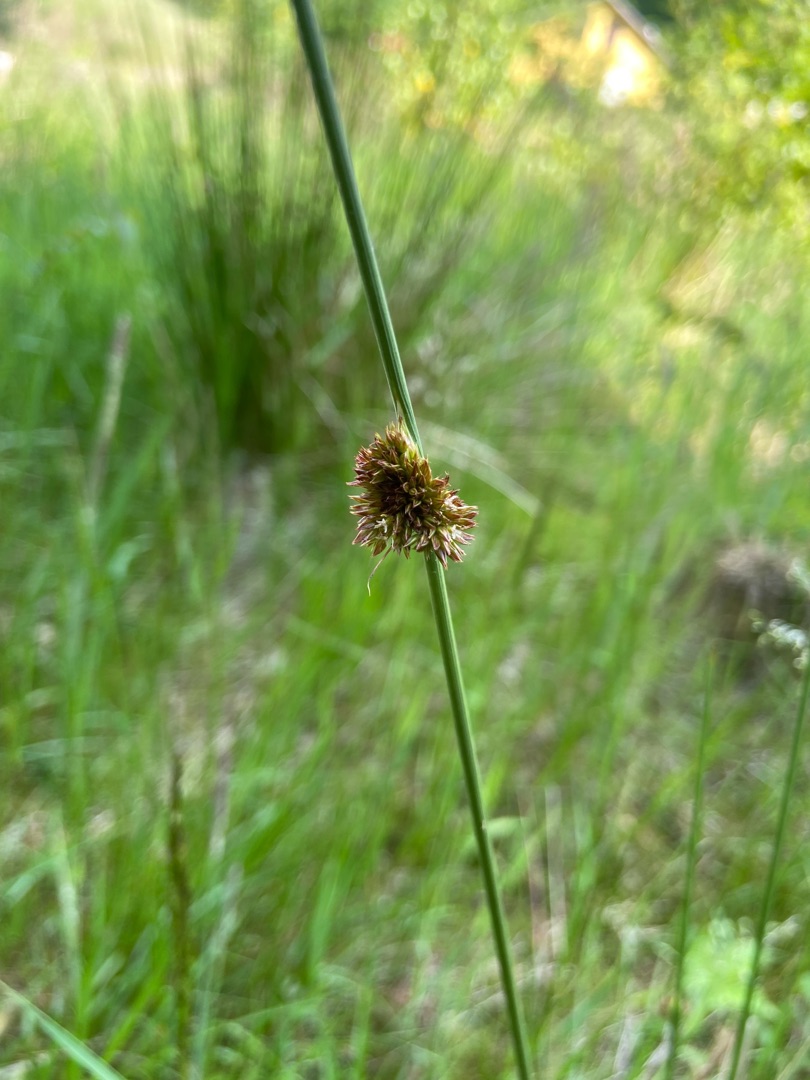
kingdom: Plantae
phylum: Tracheophyta
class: Liliopsida
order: Poales
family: Juncaceae
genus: Juncus
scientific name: Juncus conglomeratus
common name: Knop-siv
